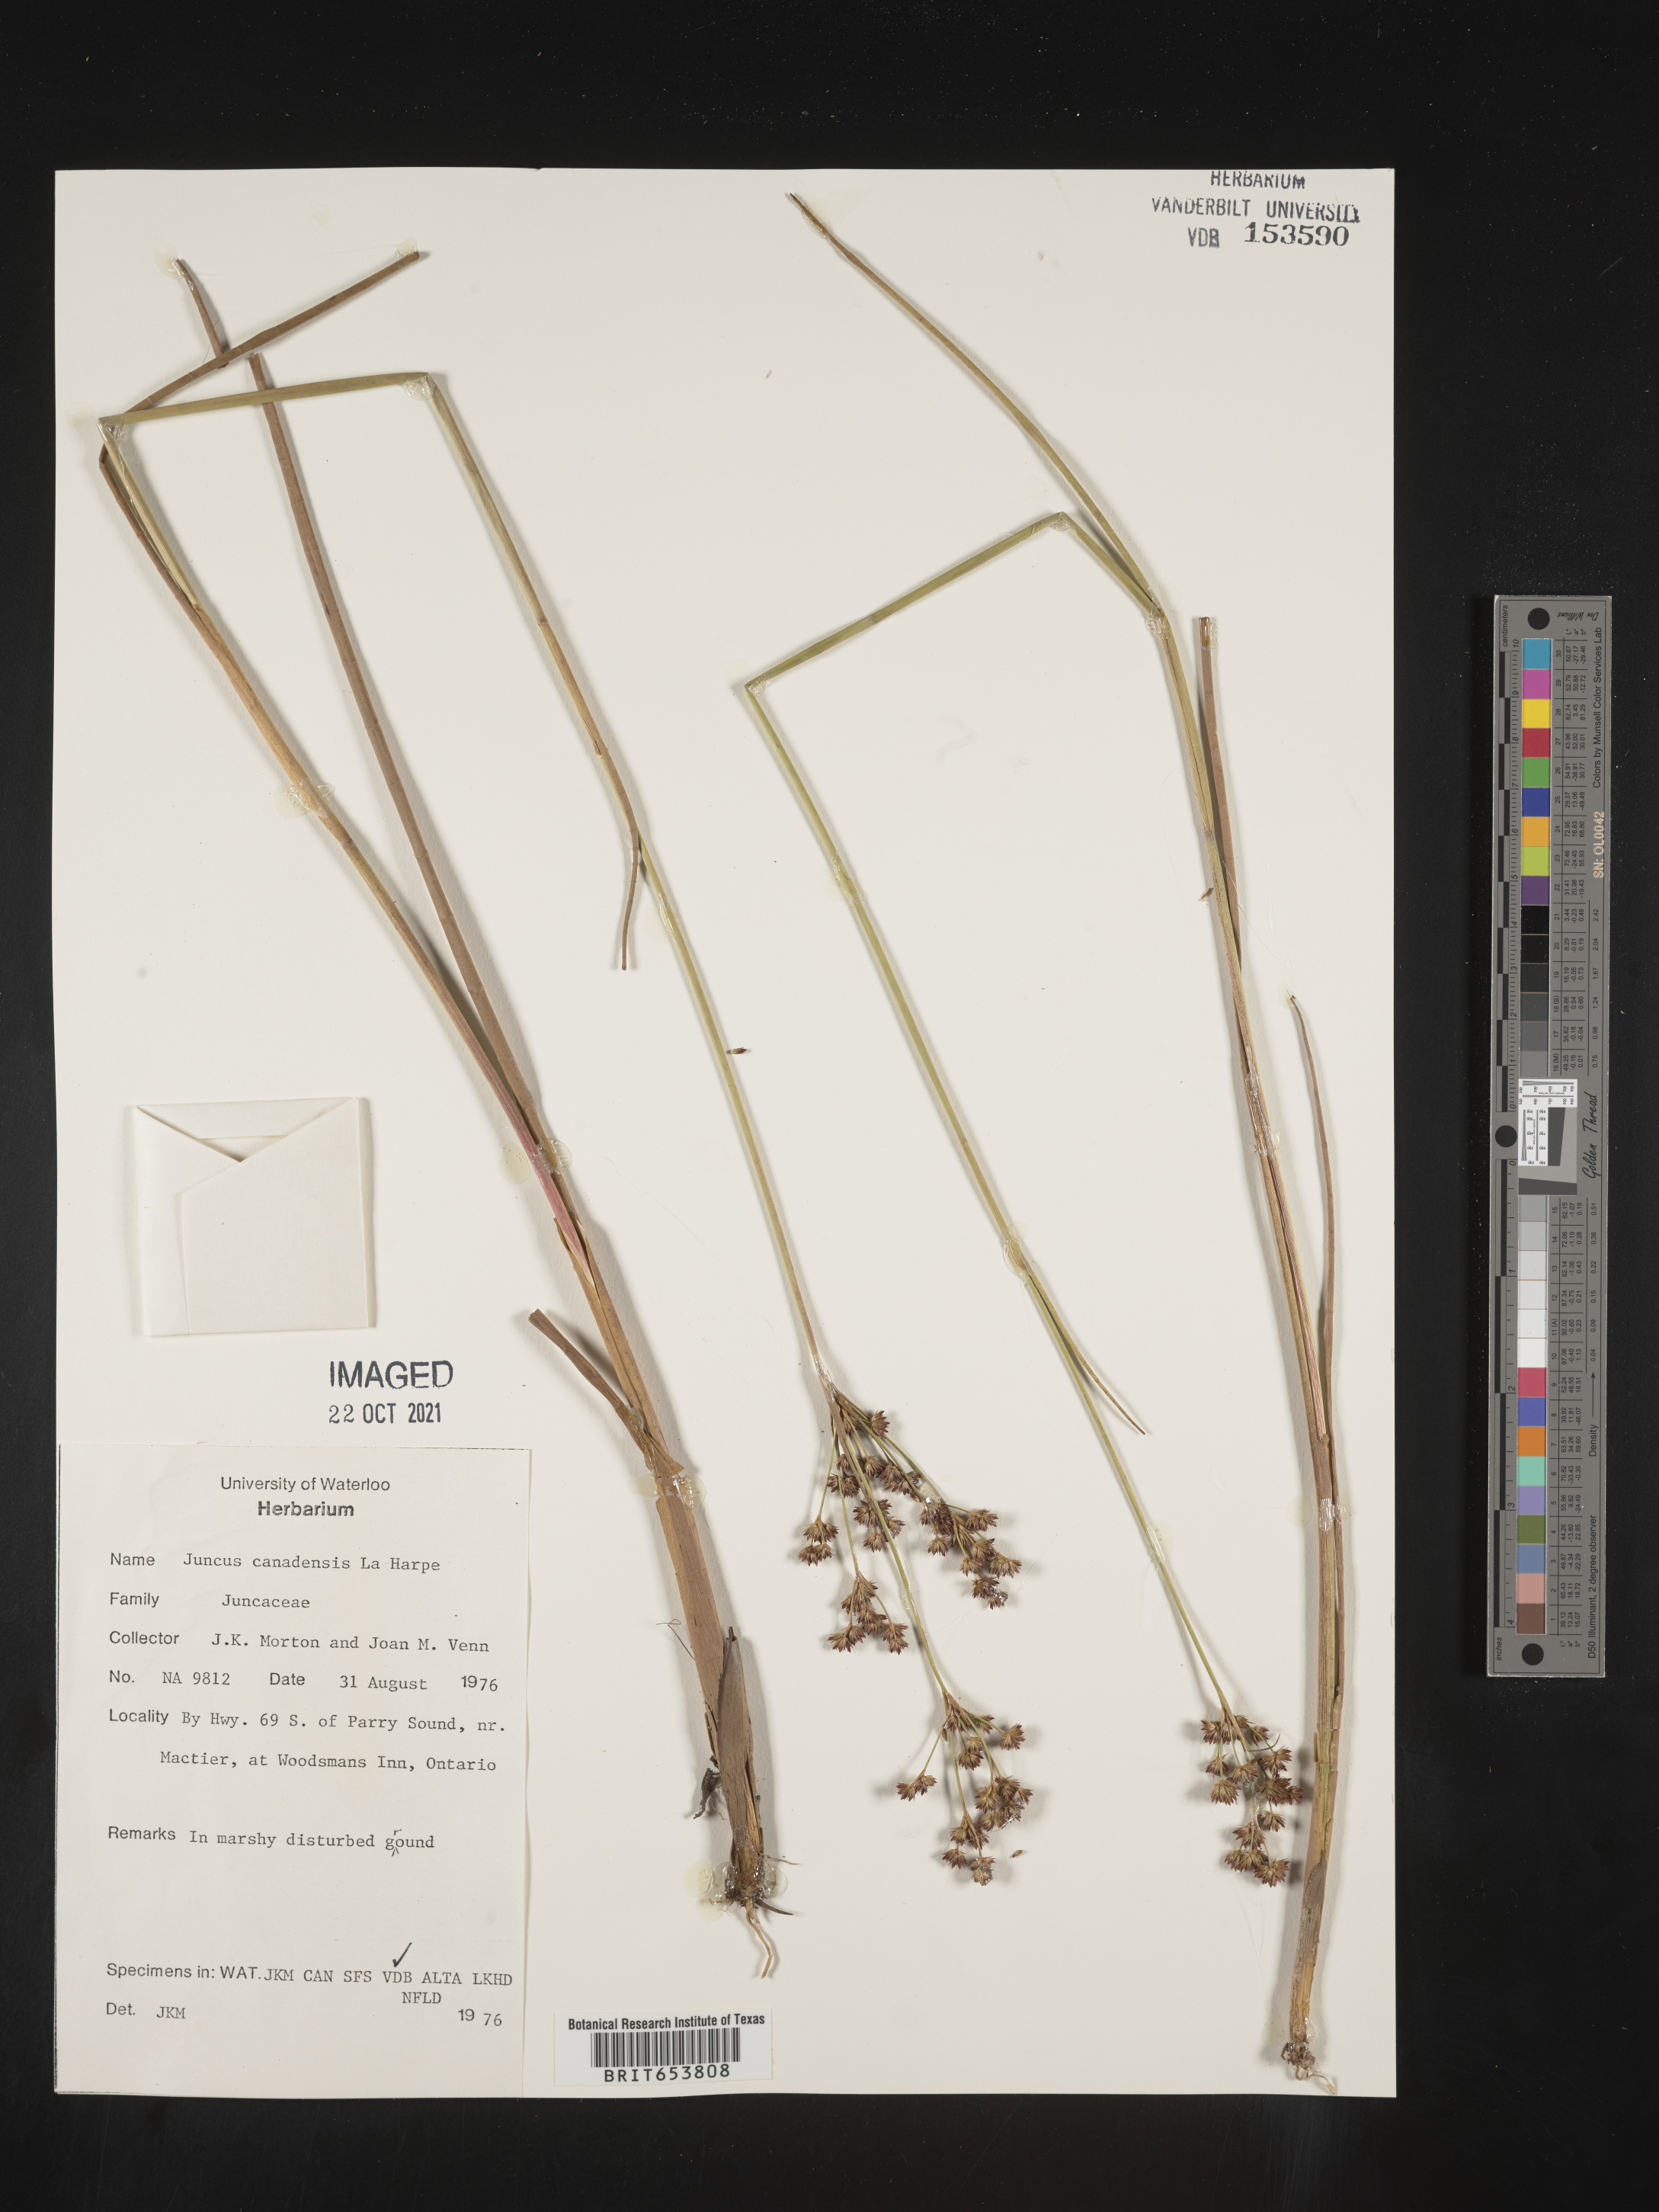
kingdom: Plantae
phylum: Tracheophyta
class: Liliopsida
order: Poales
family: Juncaceae
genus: Juncus
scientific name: Juncus
